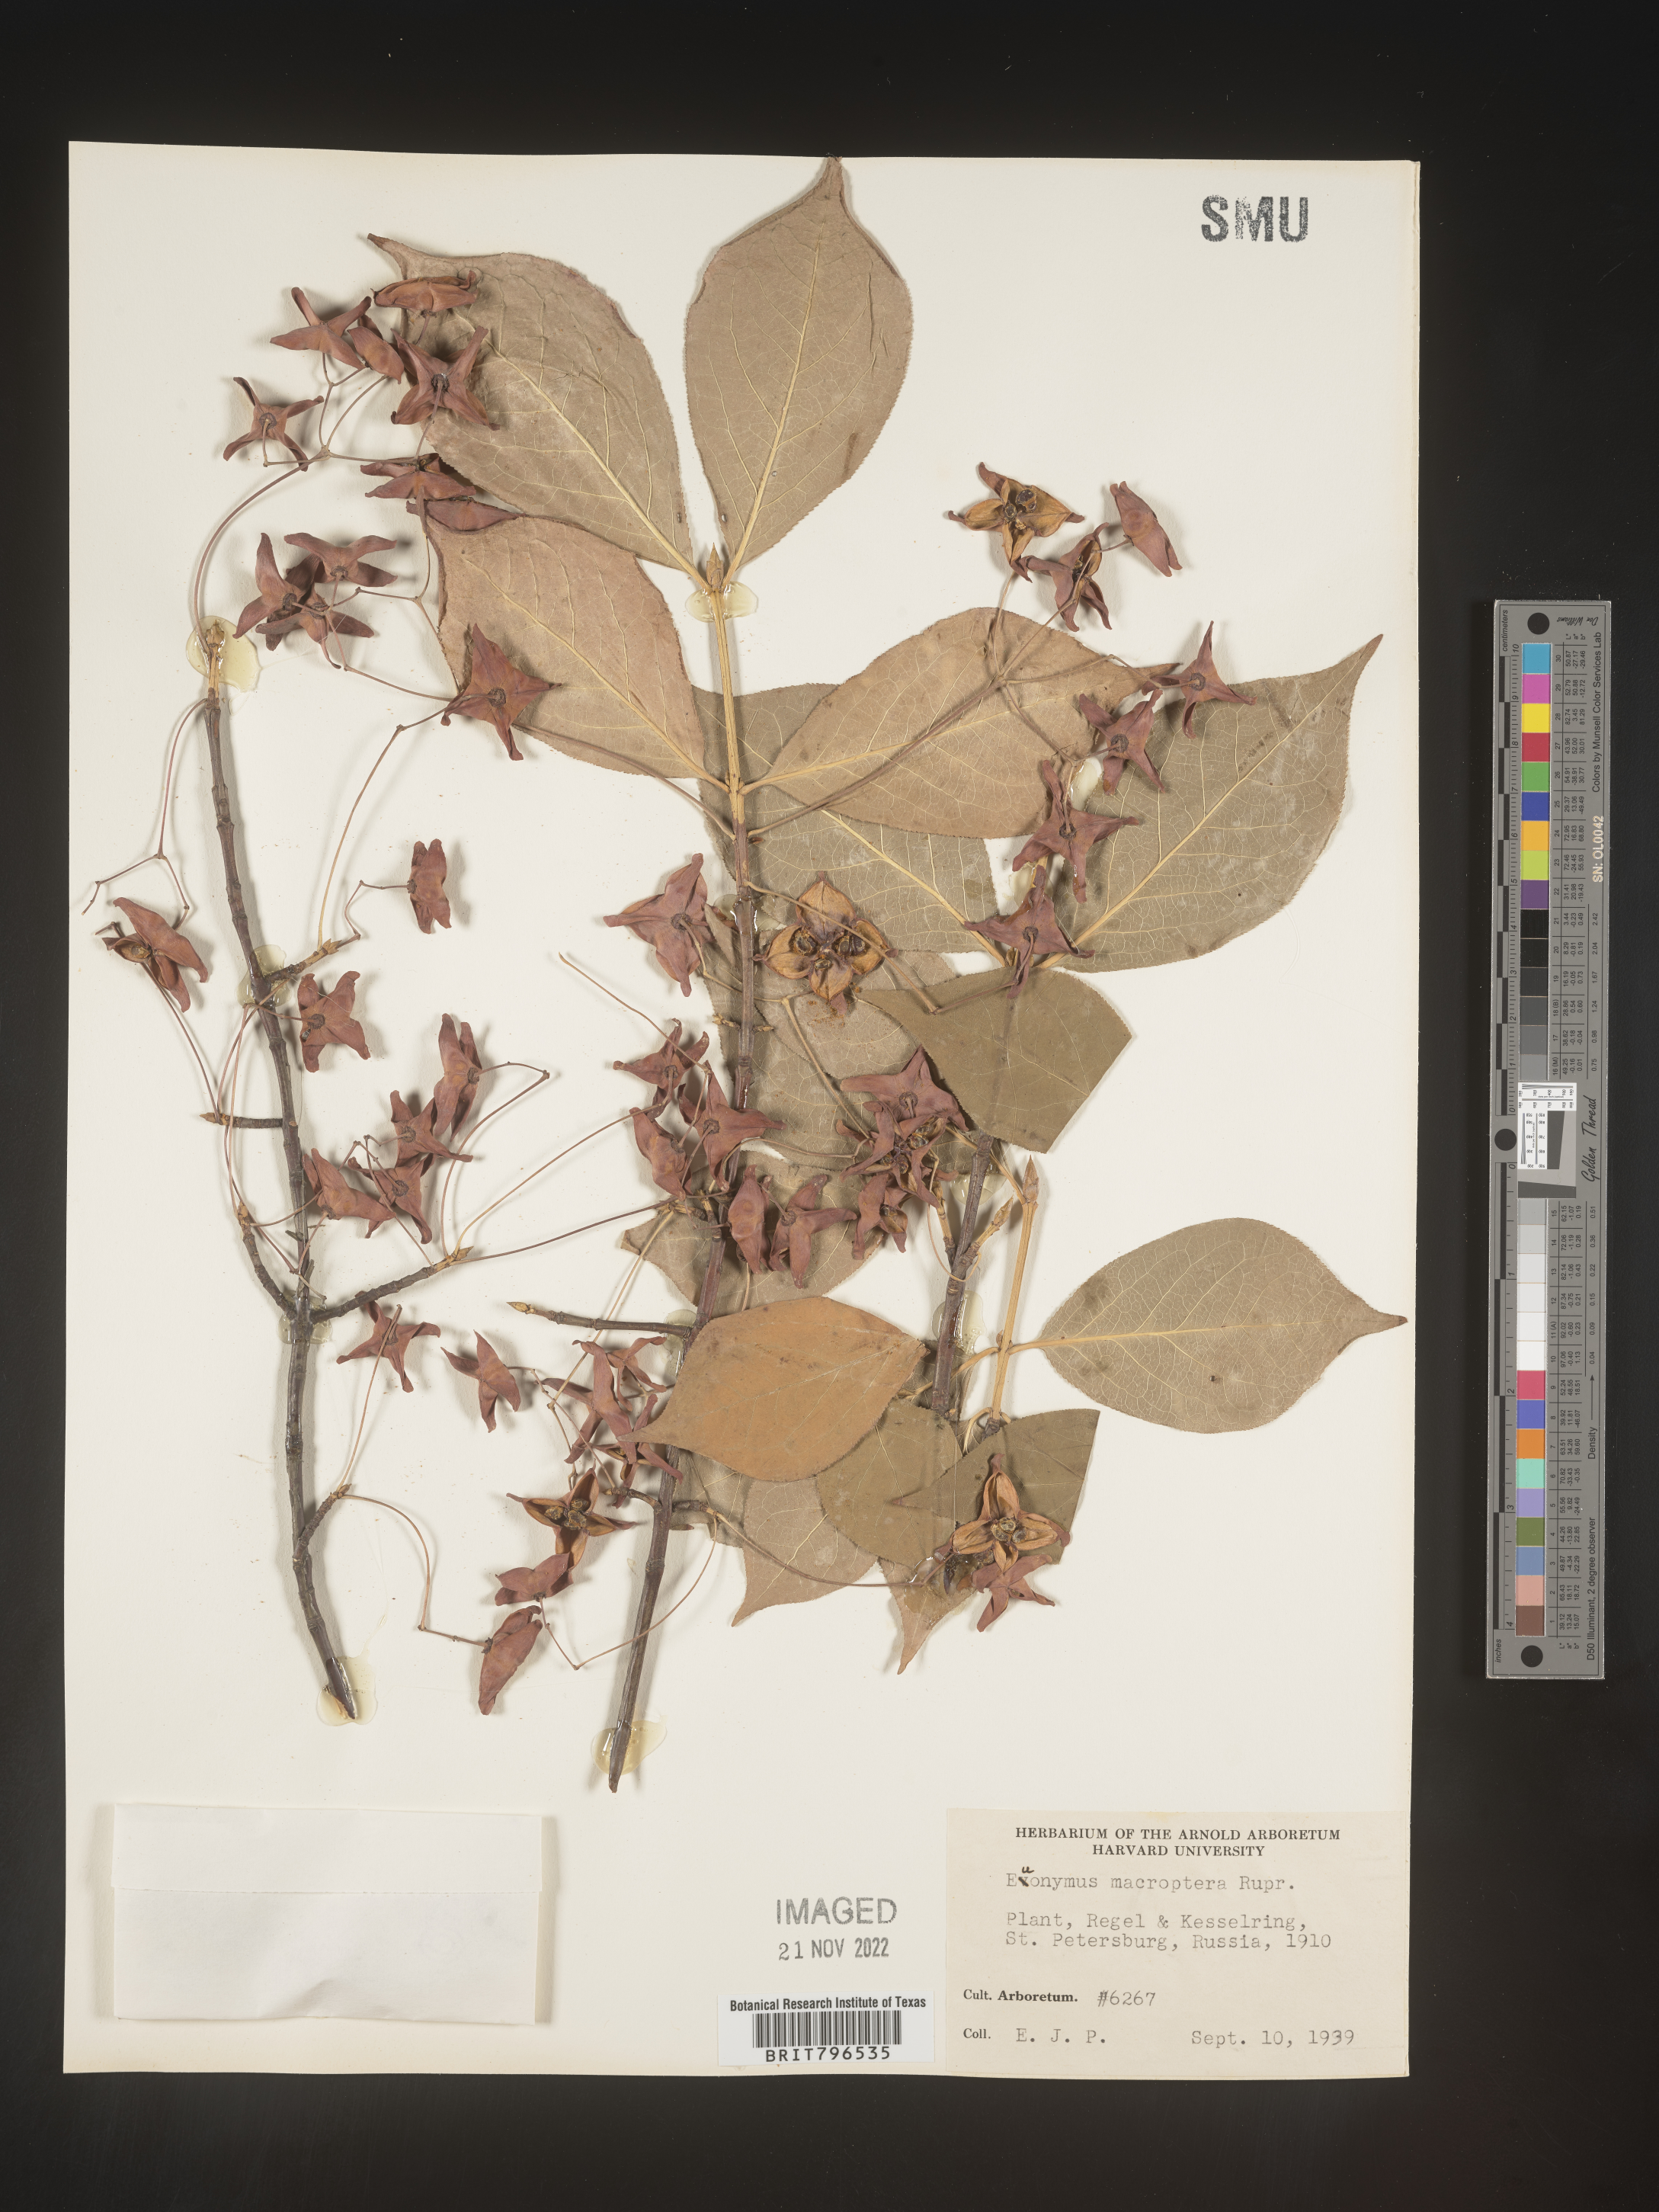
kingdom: Plantae
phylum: Tracheophyta
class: Magnoliopsida
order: Celastrales
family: Celastraceae
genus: Euonymus
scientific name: Euonymus
